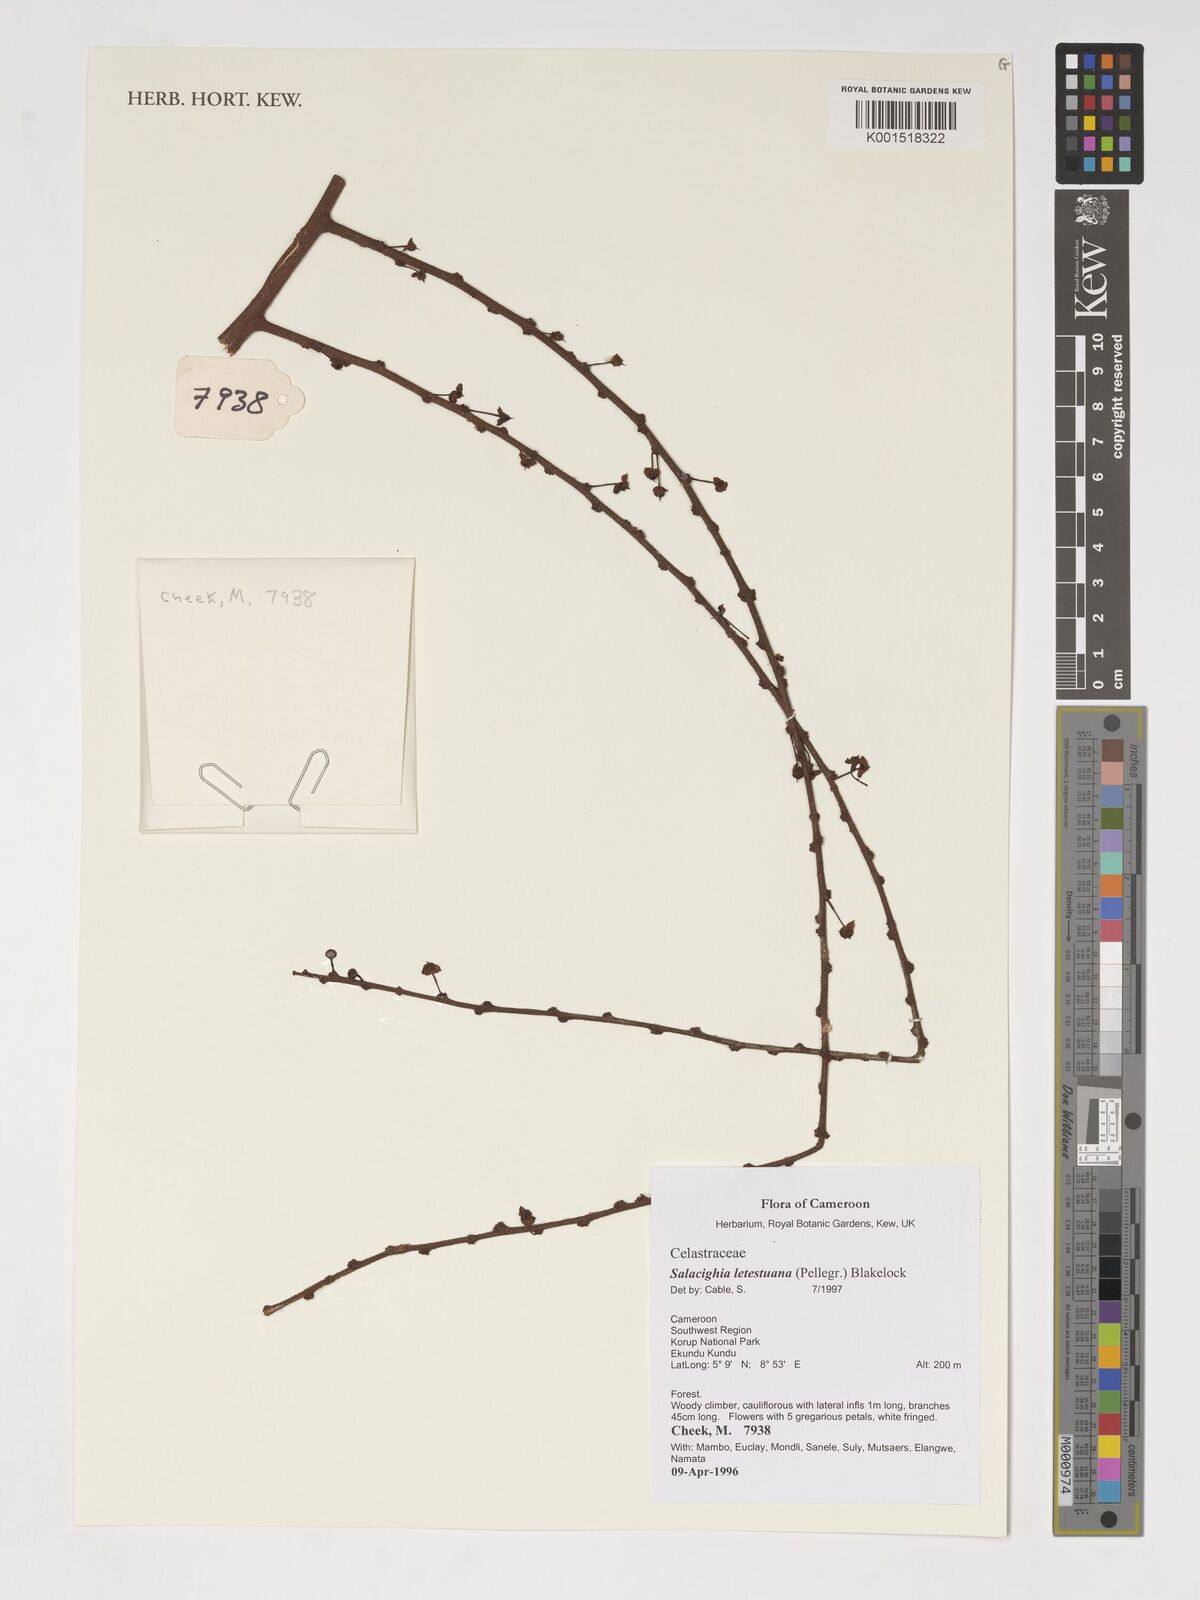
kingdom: Plantae
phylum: Tracheophyta
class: Magnoliopsida
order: Celastrales
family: Celastraceae
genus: Salacighia
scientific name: Salacighia letestuana
